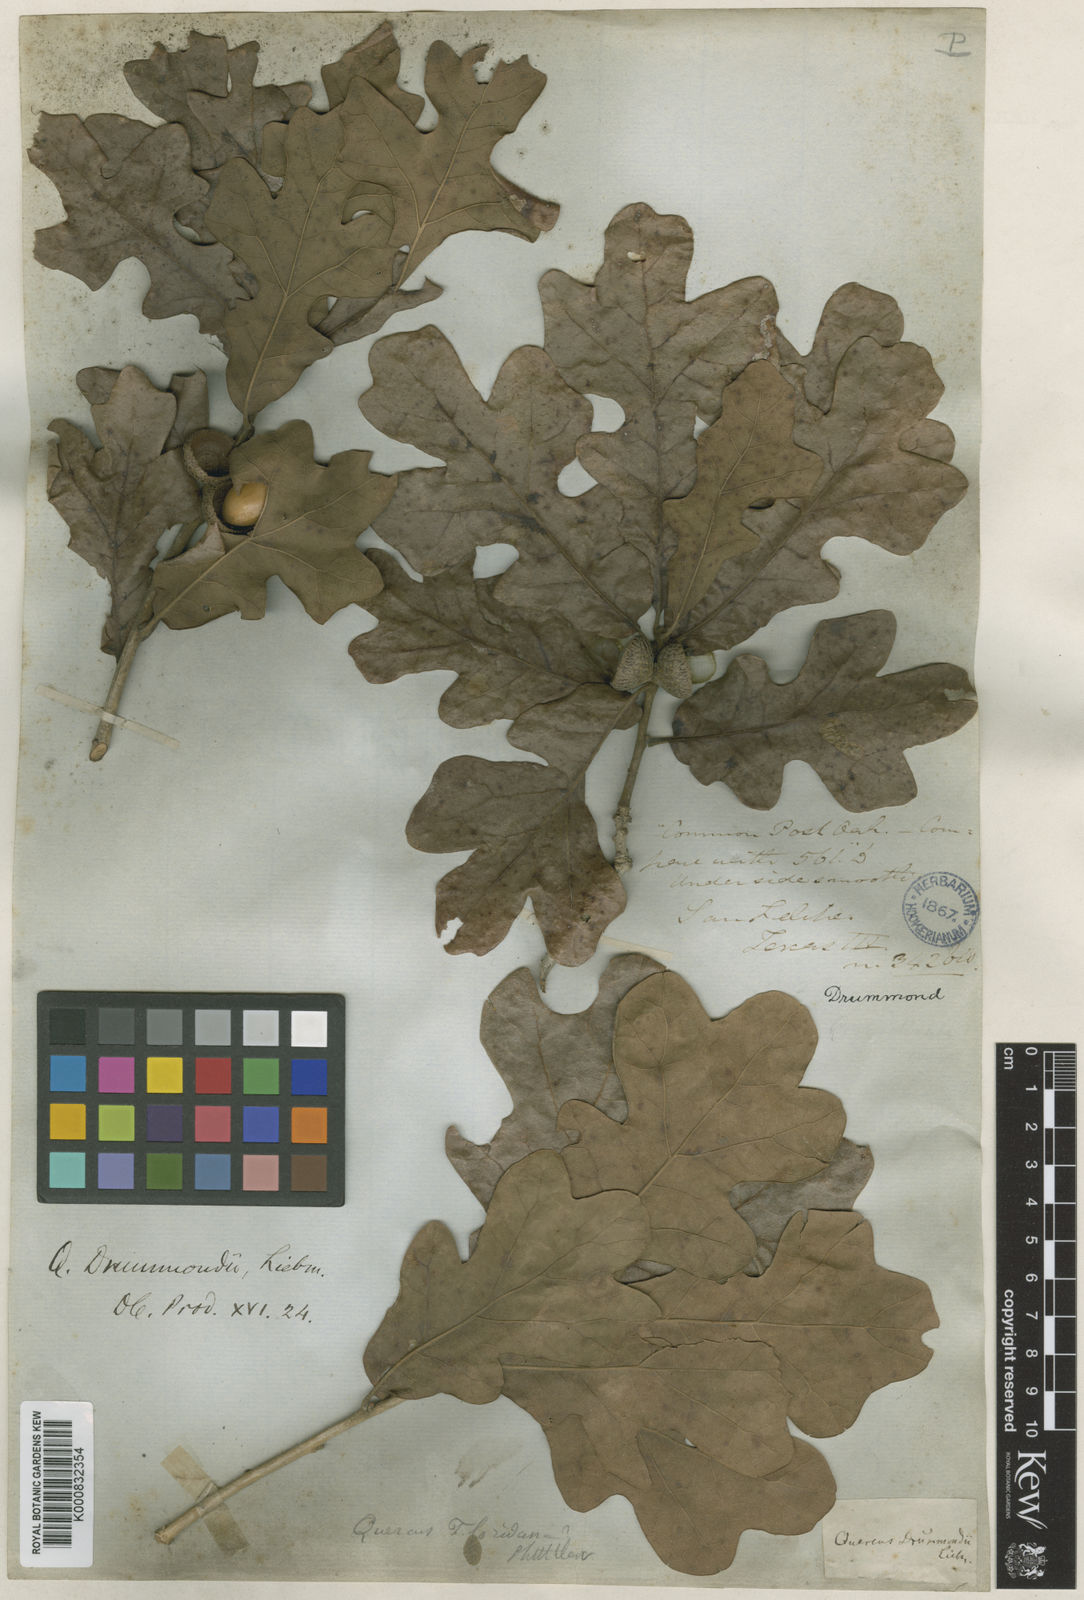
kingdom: Plantae
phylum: Tracheophyta
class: Magnoliopsida
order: Fagales
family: Fagaceae
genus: Quercus
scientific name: Quercus stellata
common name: Post oak
